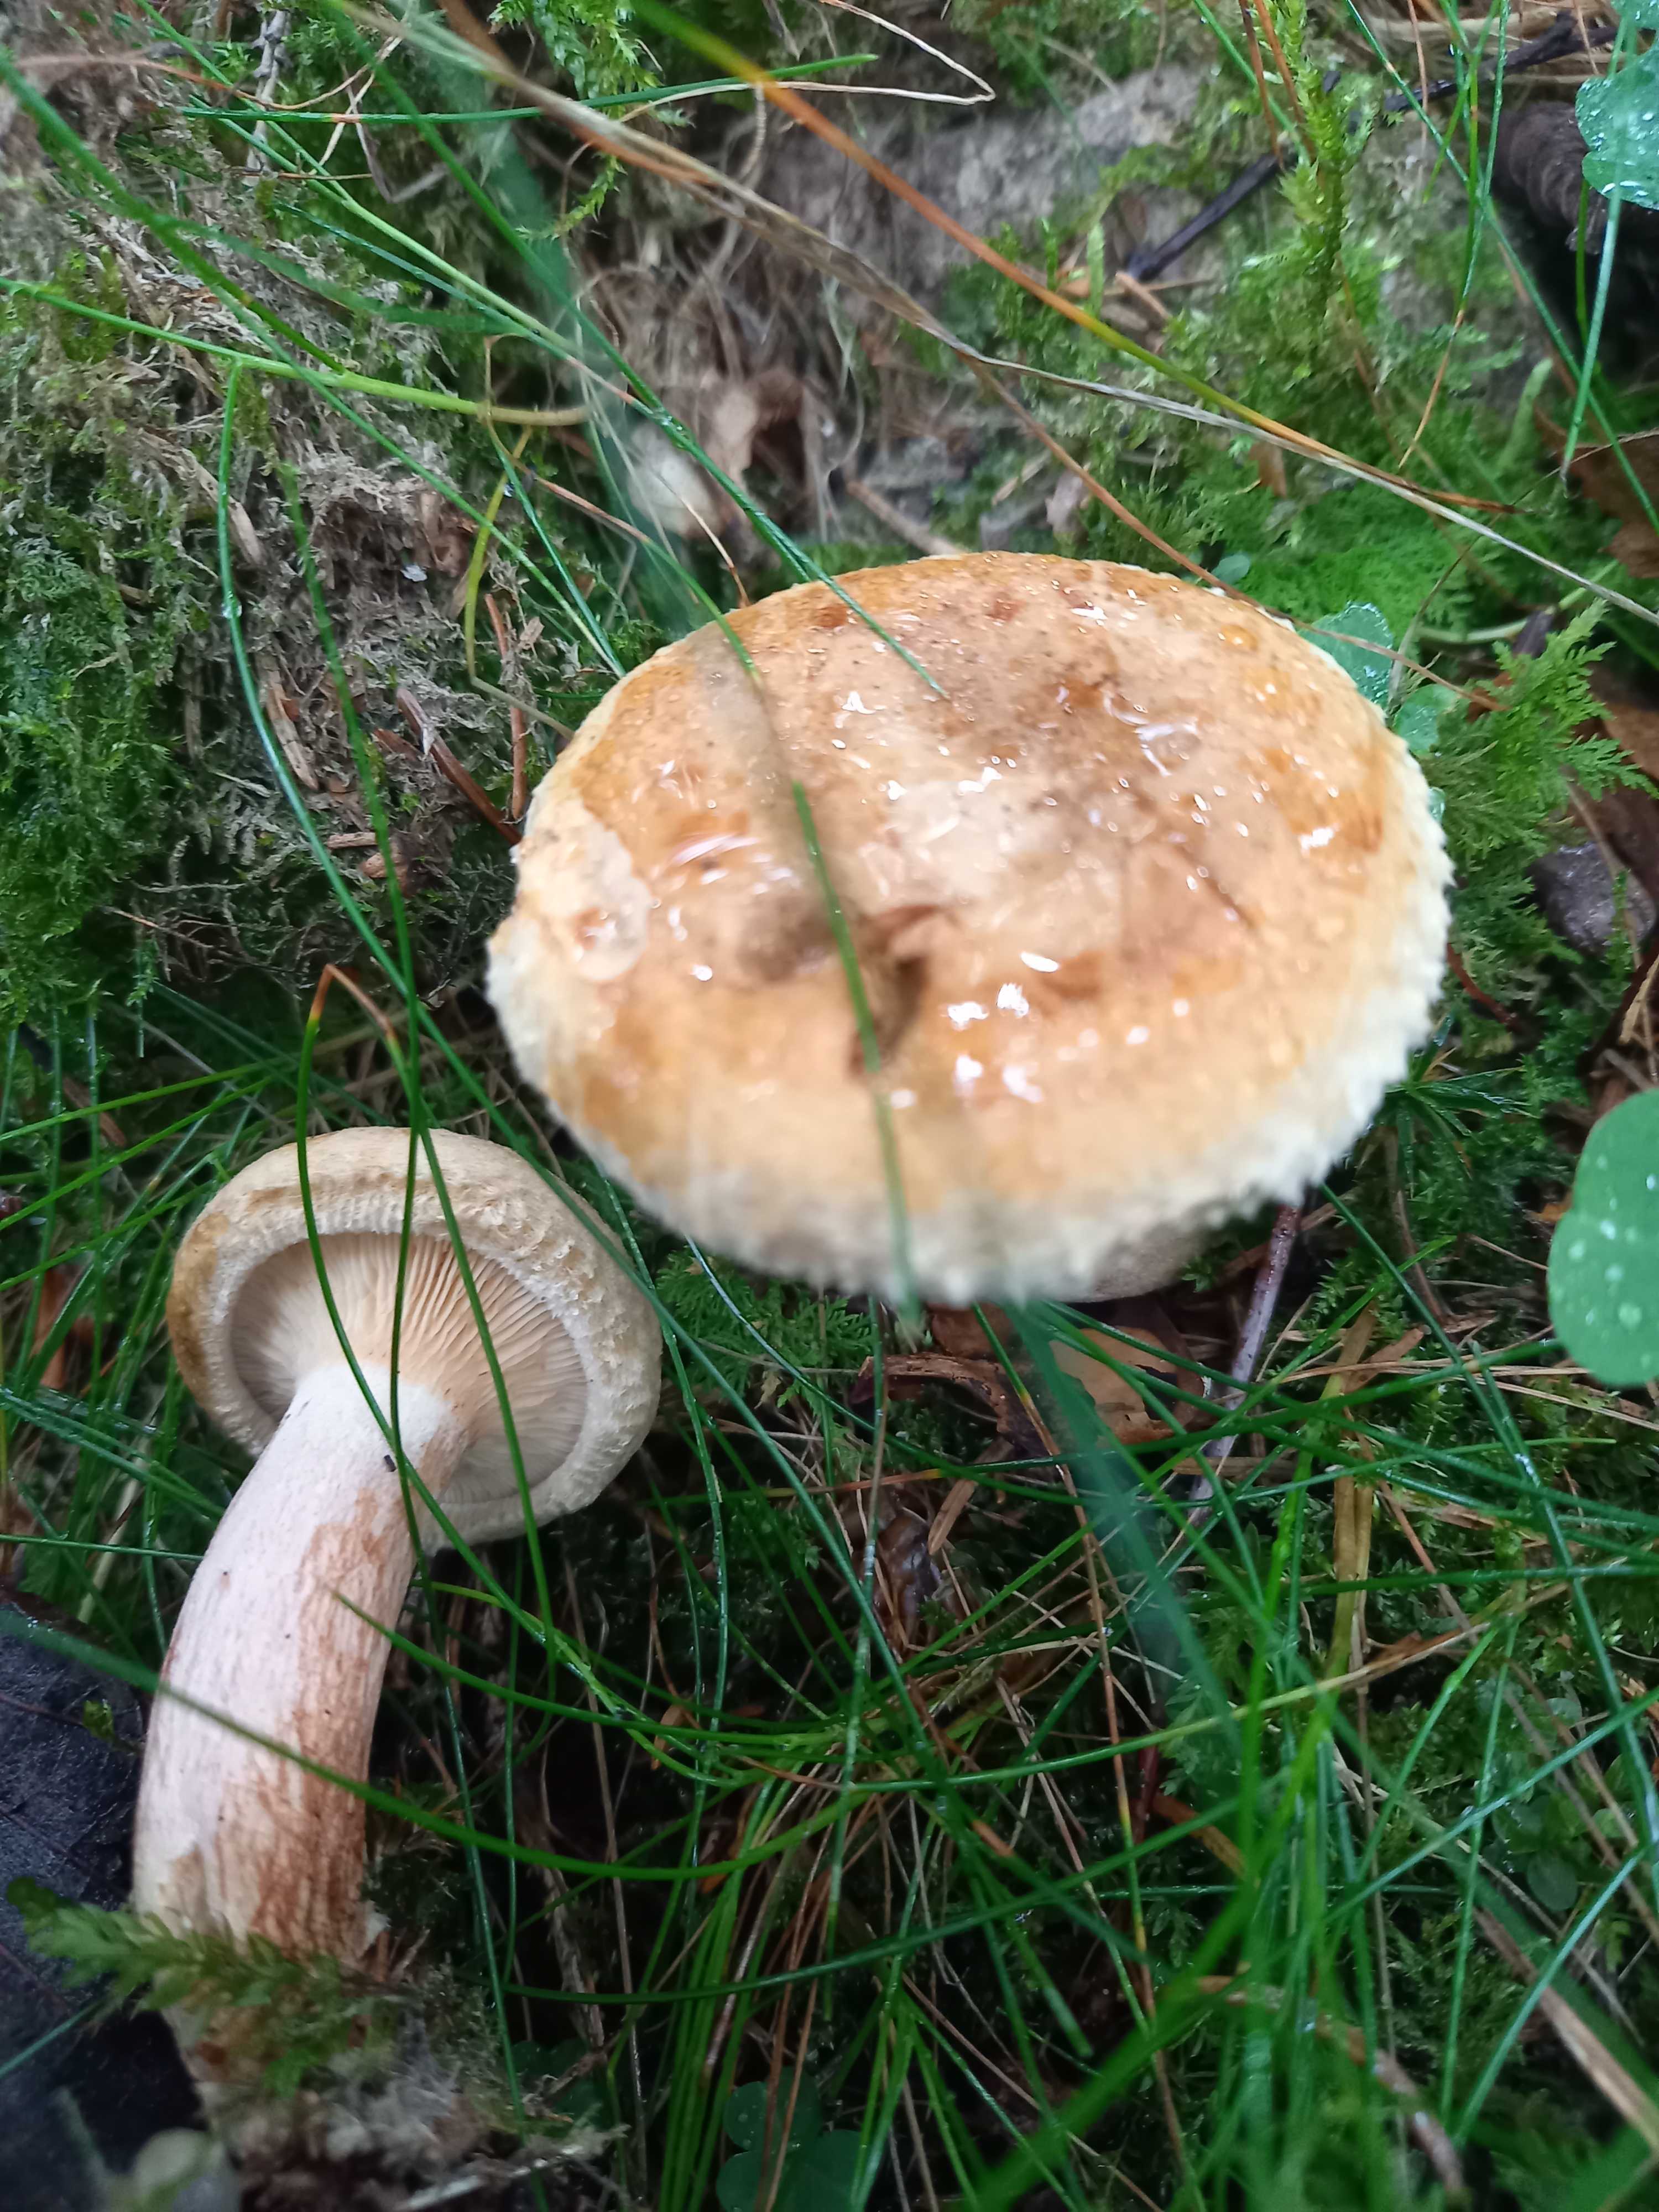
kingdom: Fungi
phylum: Basidiomycota
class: Agaricomycetes
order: Boletales
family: Paxillaceae
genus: Paxillus
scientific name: Paxillus involutus
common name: almindelig netbladhat
